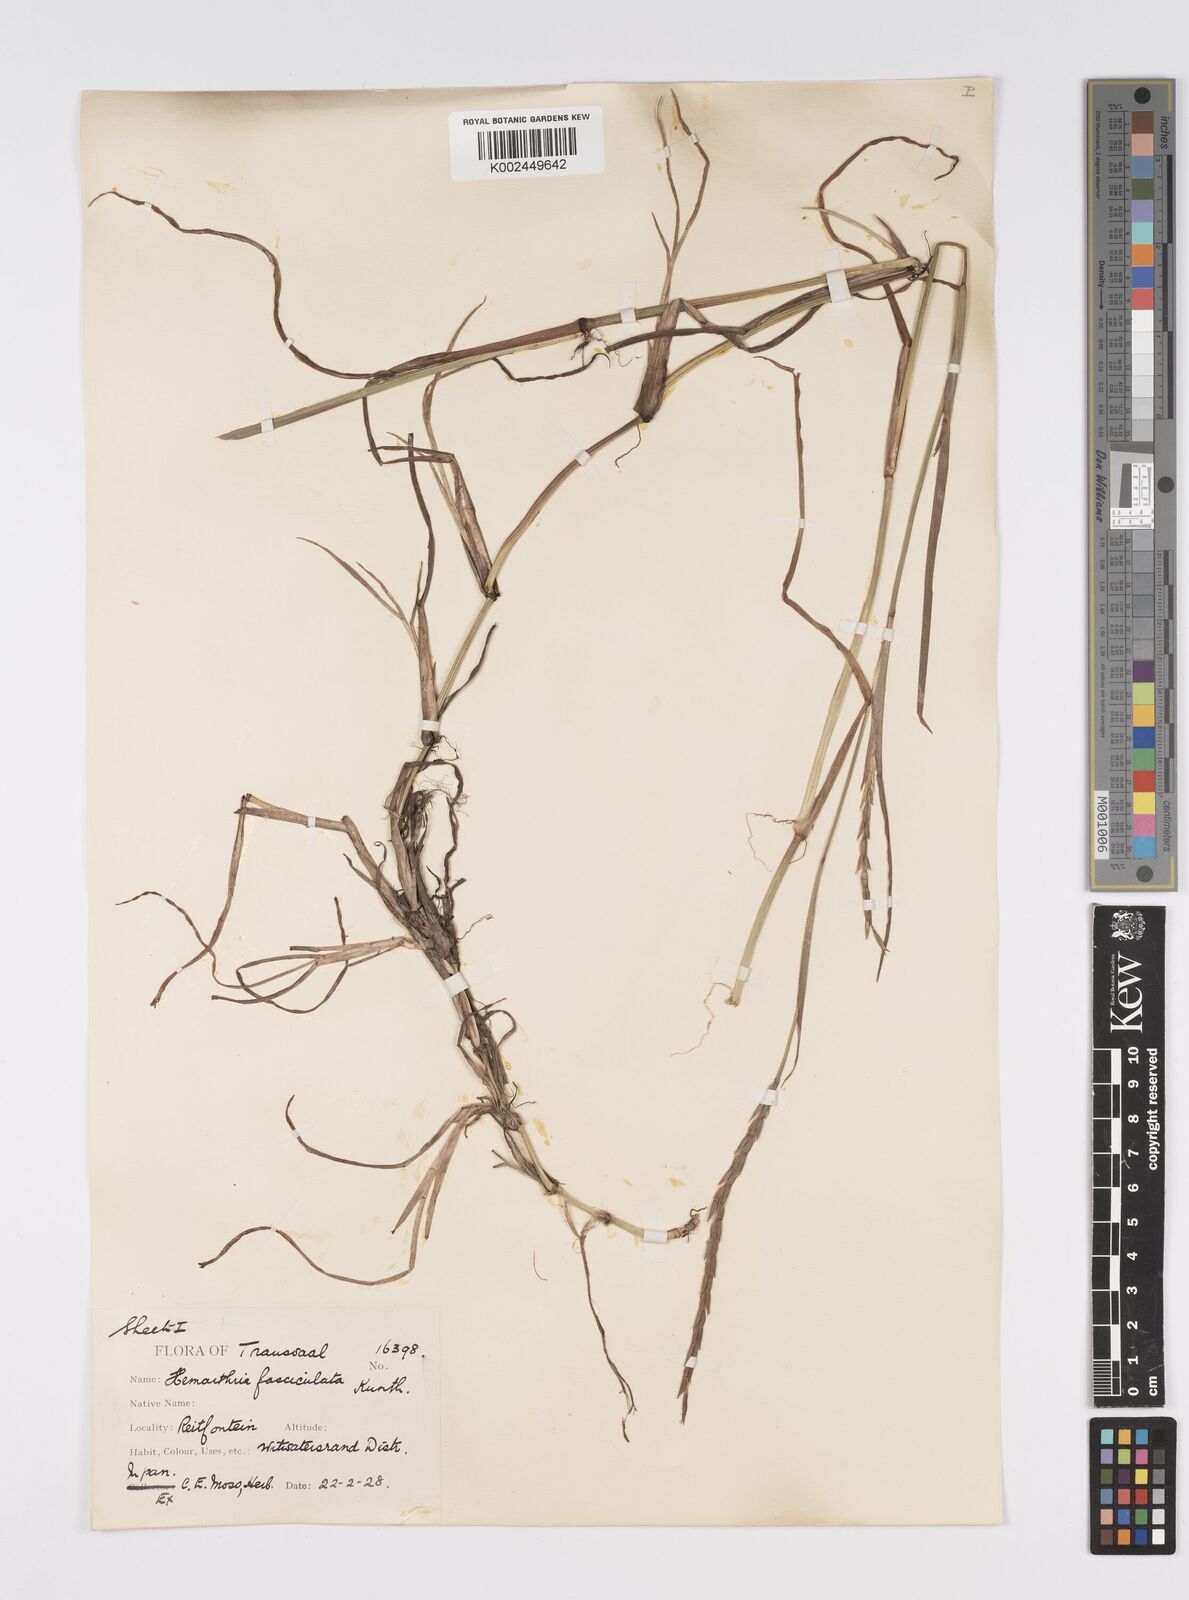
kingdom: Plantae
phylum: Tracheophyta
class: Liliopsida
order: Poales
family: Poaceae
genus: Hemarthria
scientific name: Hemarthria altissima
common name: African jointgrass
